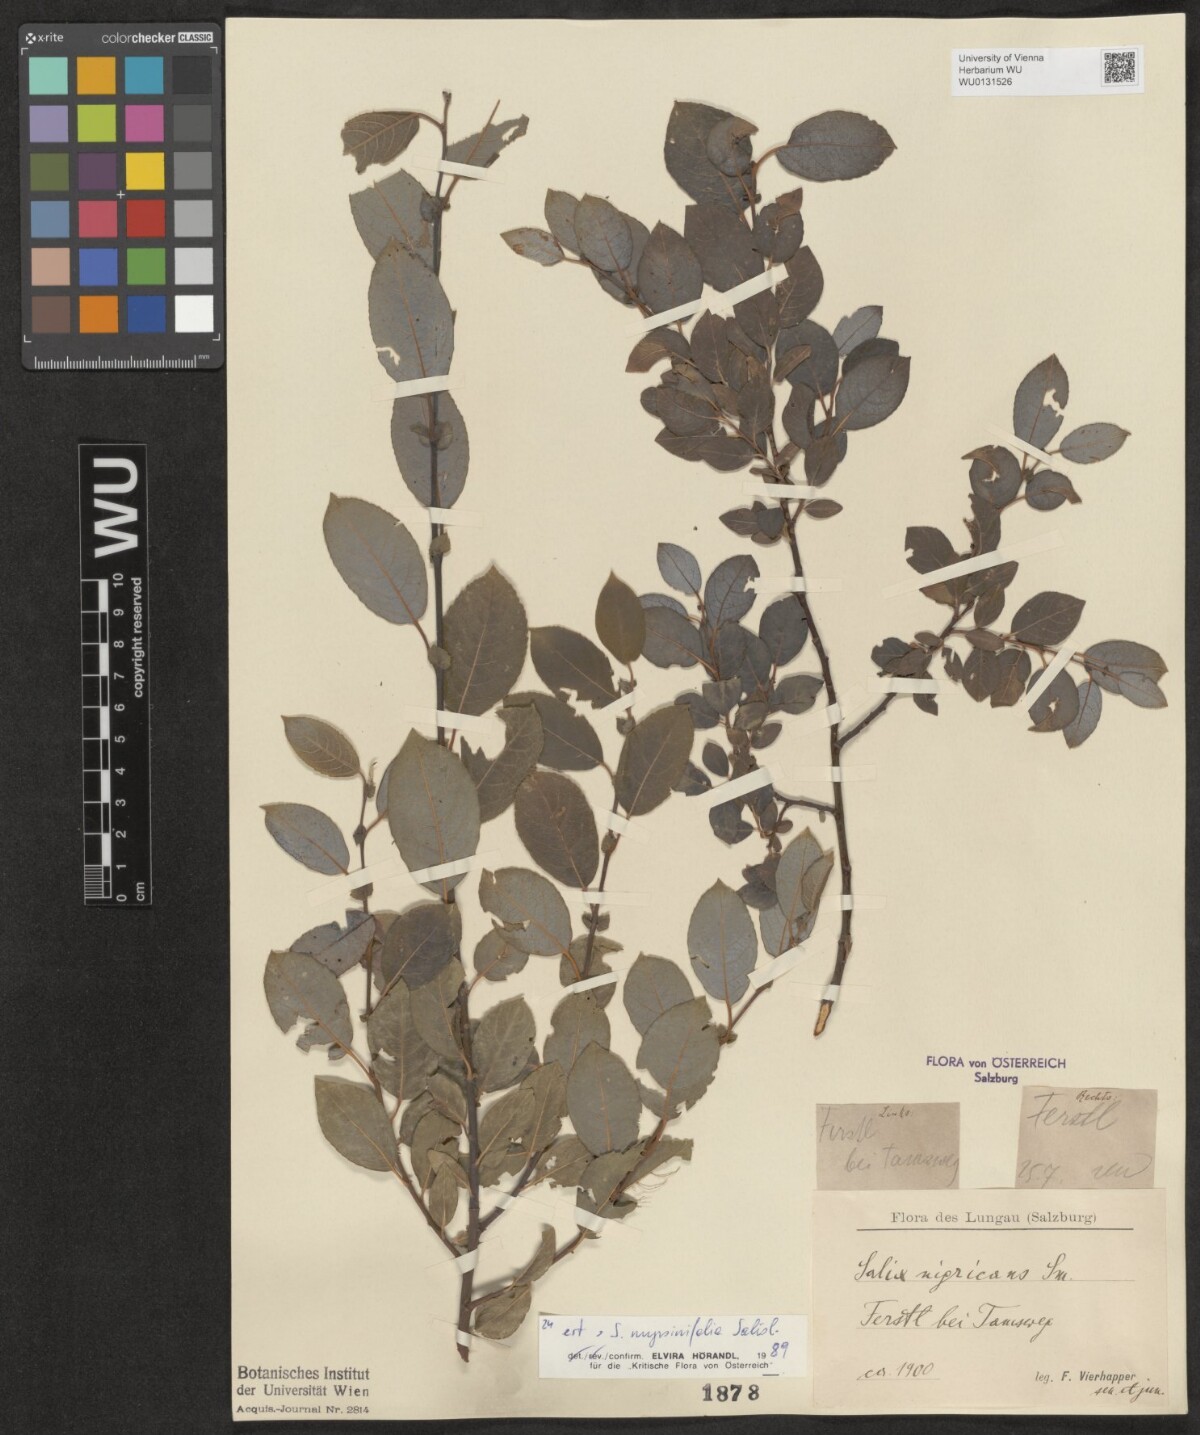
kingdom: Plantae
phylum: Tracheophyta
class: Magnoliopsida
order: Malpighiales
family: Salicaceae
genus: Salix
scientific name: Salix myrsinifolia
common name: Dark-leaved willow
